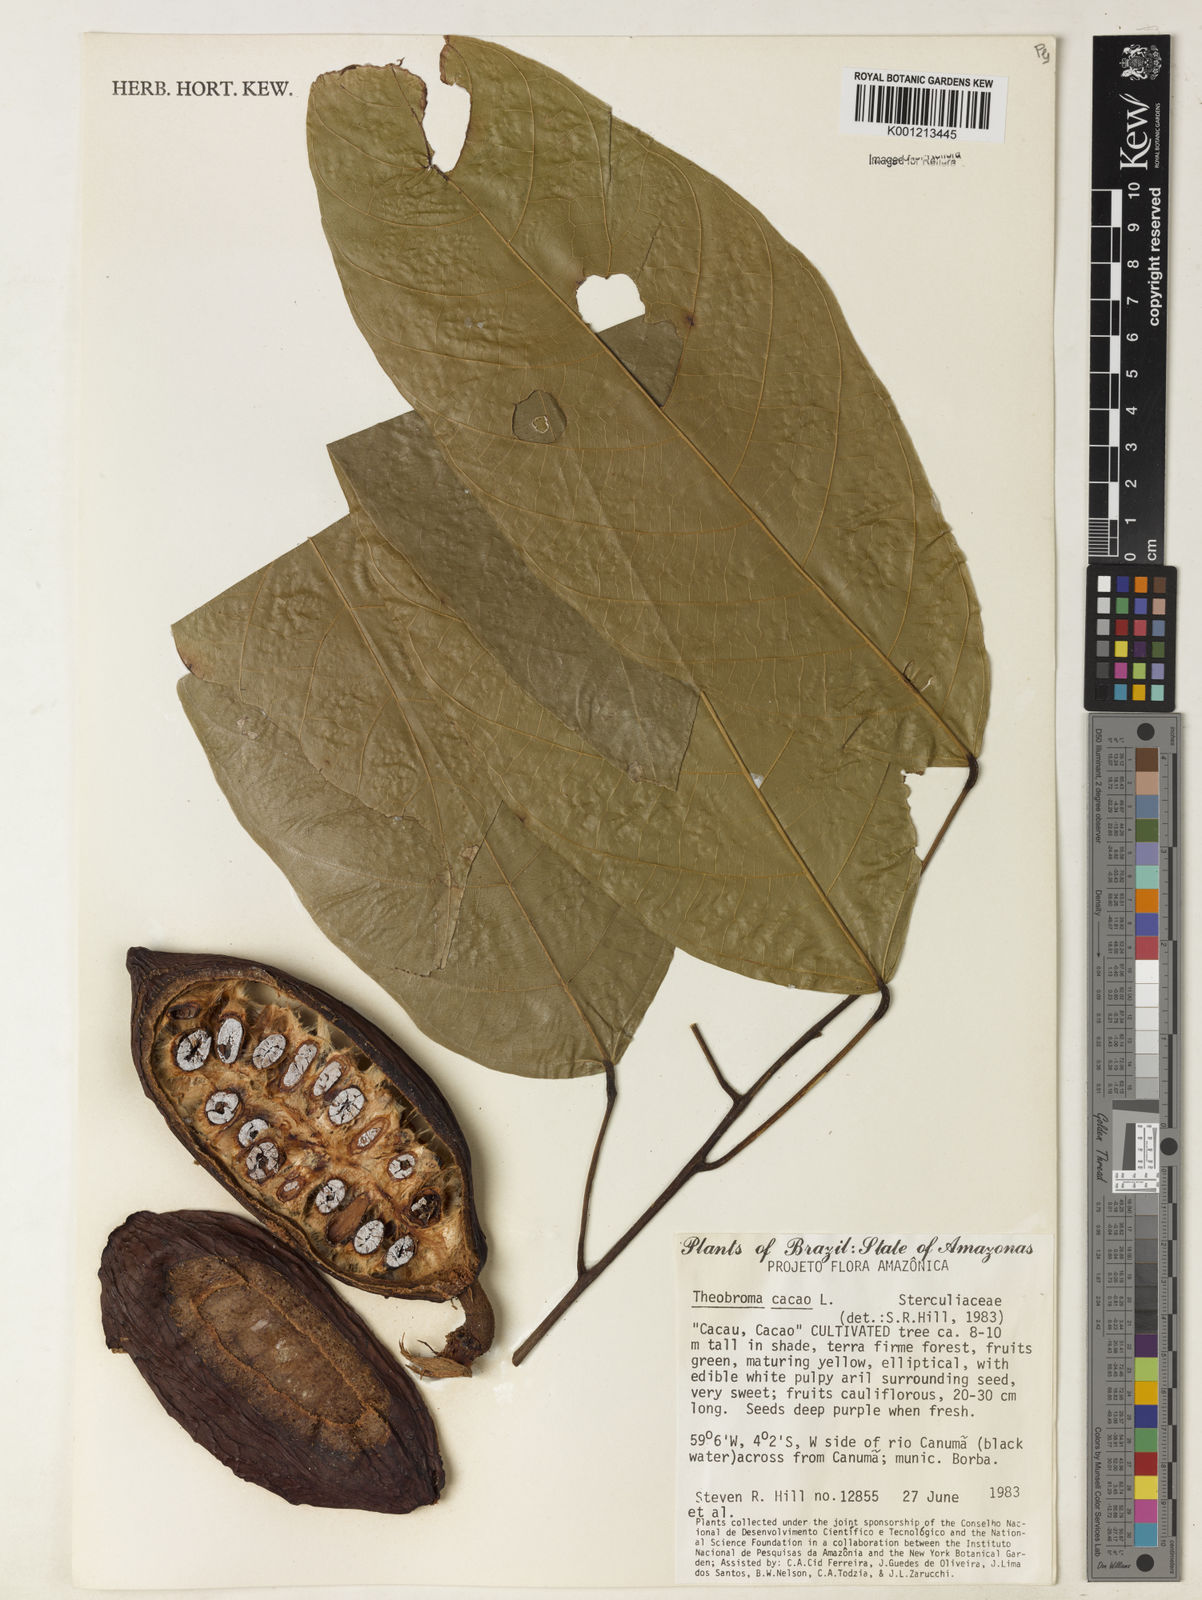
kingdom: Plantae
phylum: Tracheophyta
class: Magnoliopsida
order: Malvales
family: Malvaceae
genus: Theobroma
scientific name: Theobroma subincanum
